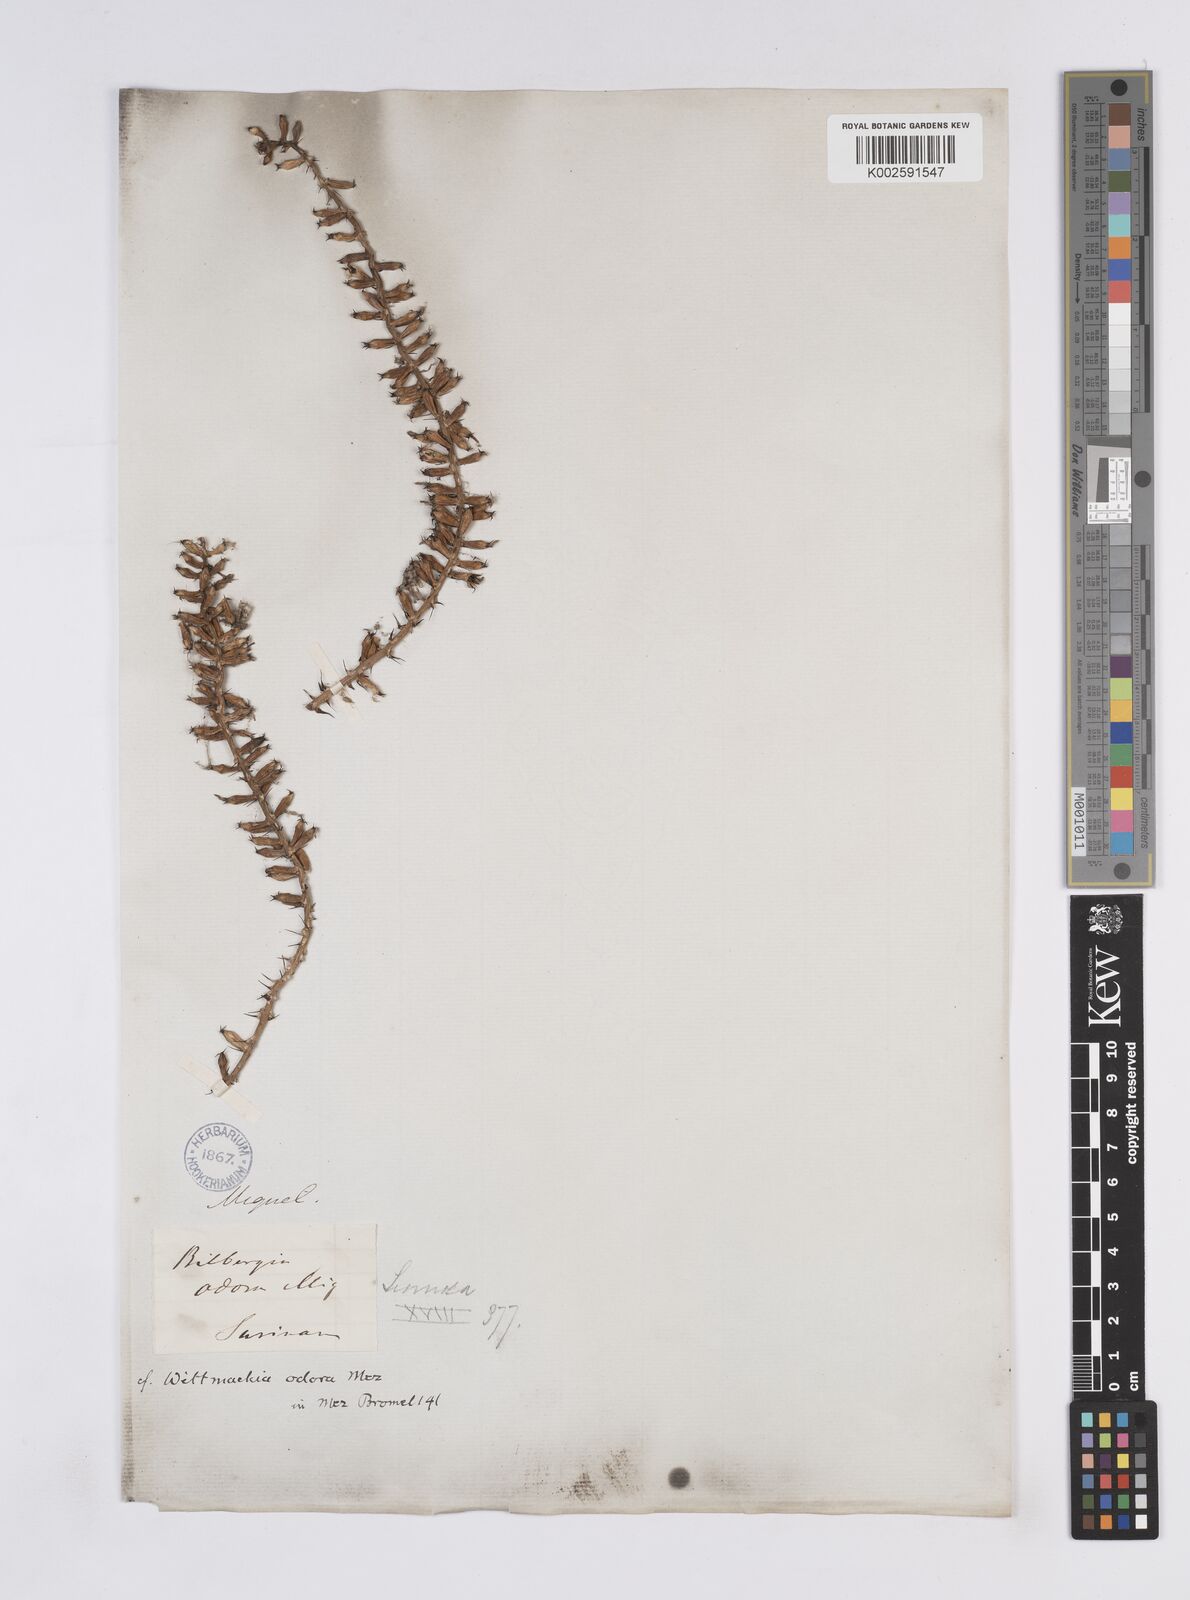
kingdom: Plantae
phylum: Tracheophyta
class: Liliopsida
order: Poales
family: Bromeliaceae
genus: Aechmea
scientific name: Aechmea
